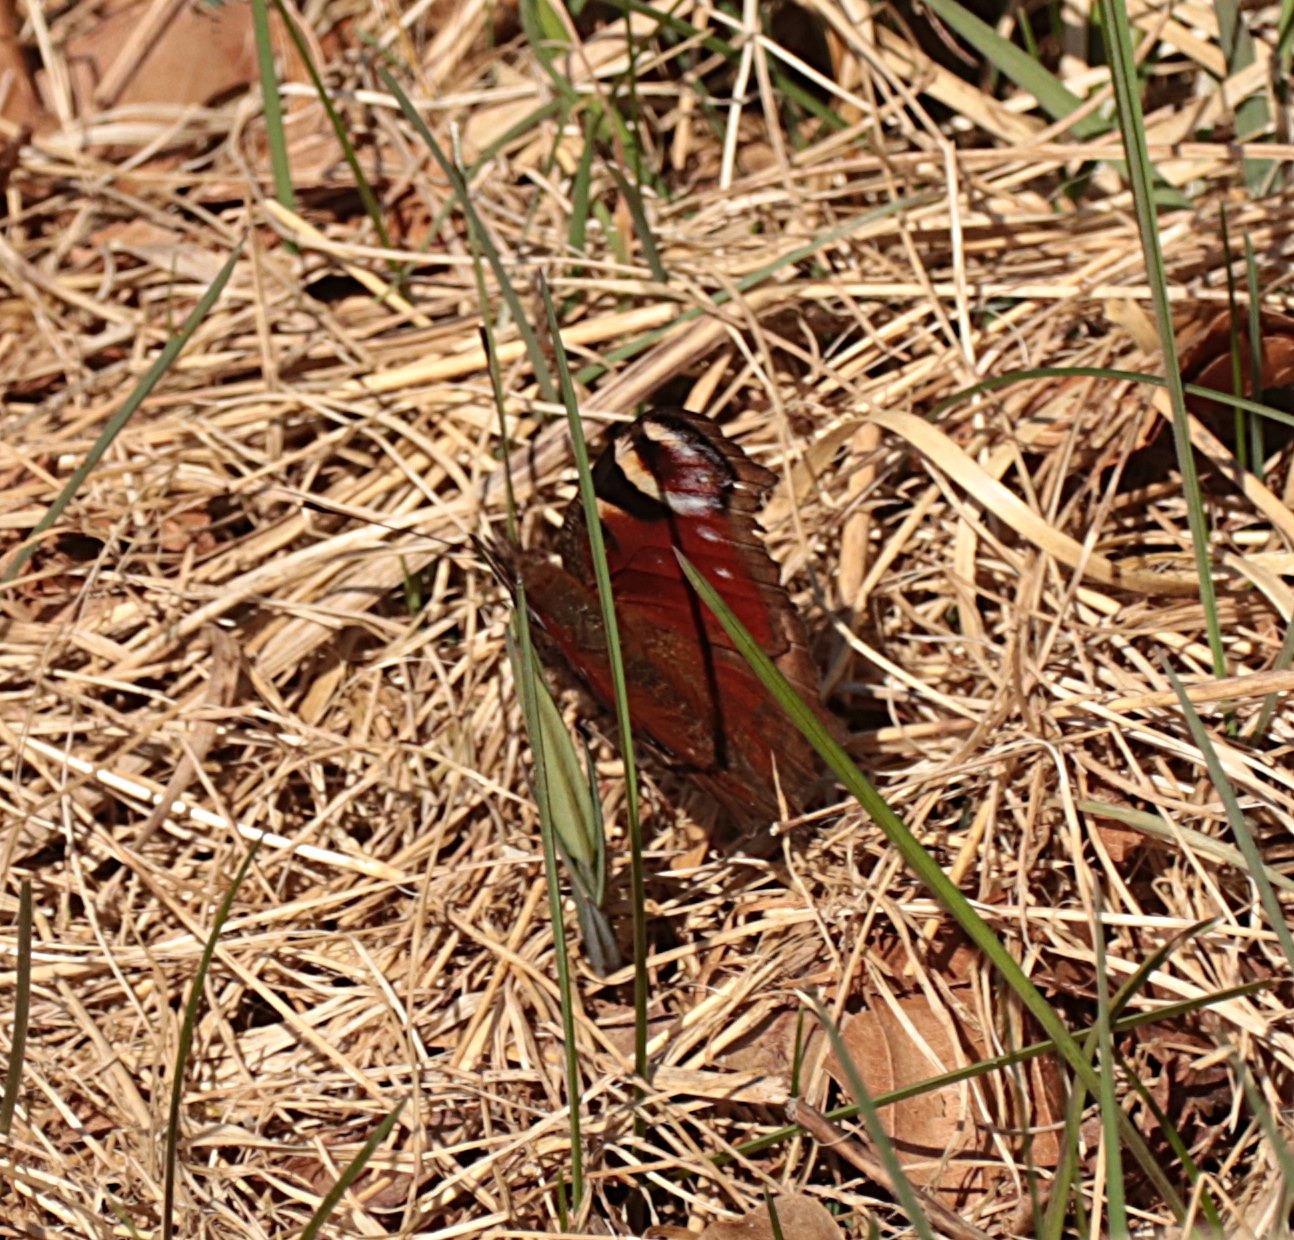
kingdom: Animalia
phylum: Arthropoda
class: Insecta
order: Lepidoptera
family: Nymphalidae
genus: Aglais
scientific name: Aglais io
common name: Dagpåfugleøje
